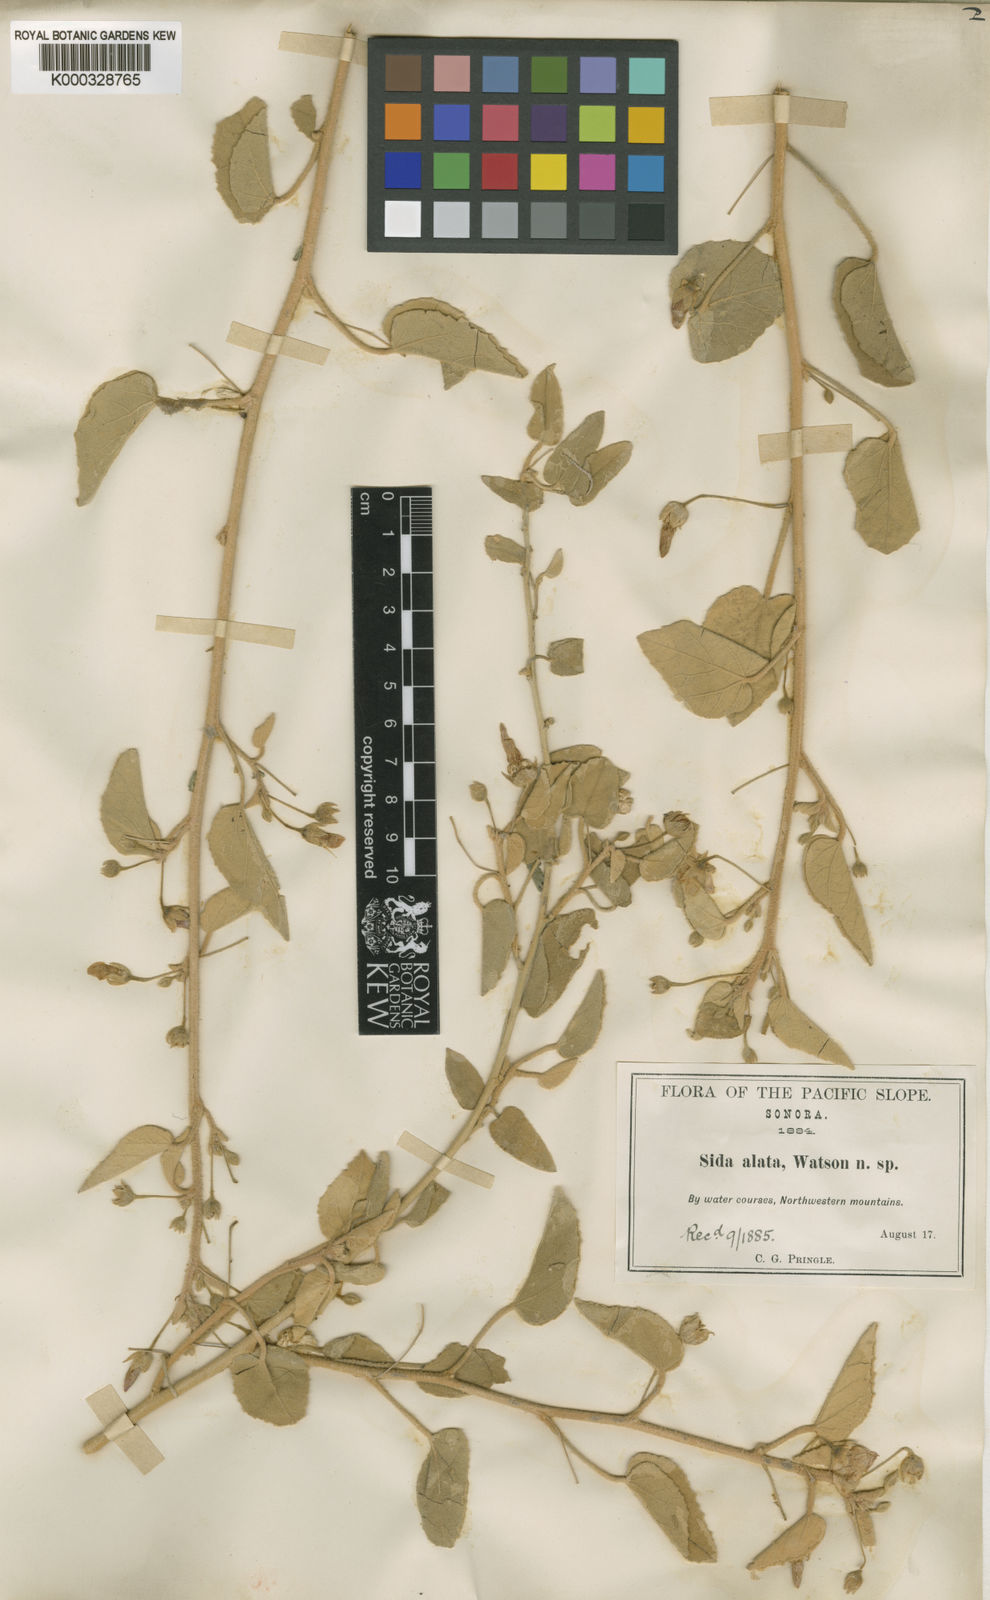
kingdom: Plantae
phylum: Tracheophyta
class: Magnoliopsida
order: Malvales
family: Malvaceae
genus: Horsfordia
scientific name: Horsfordia alata
